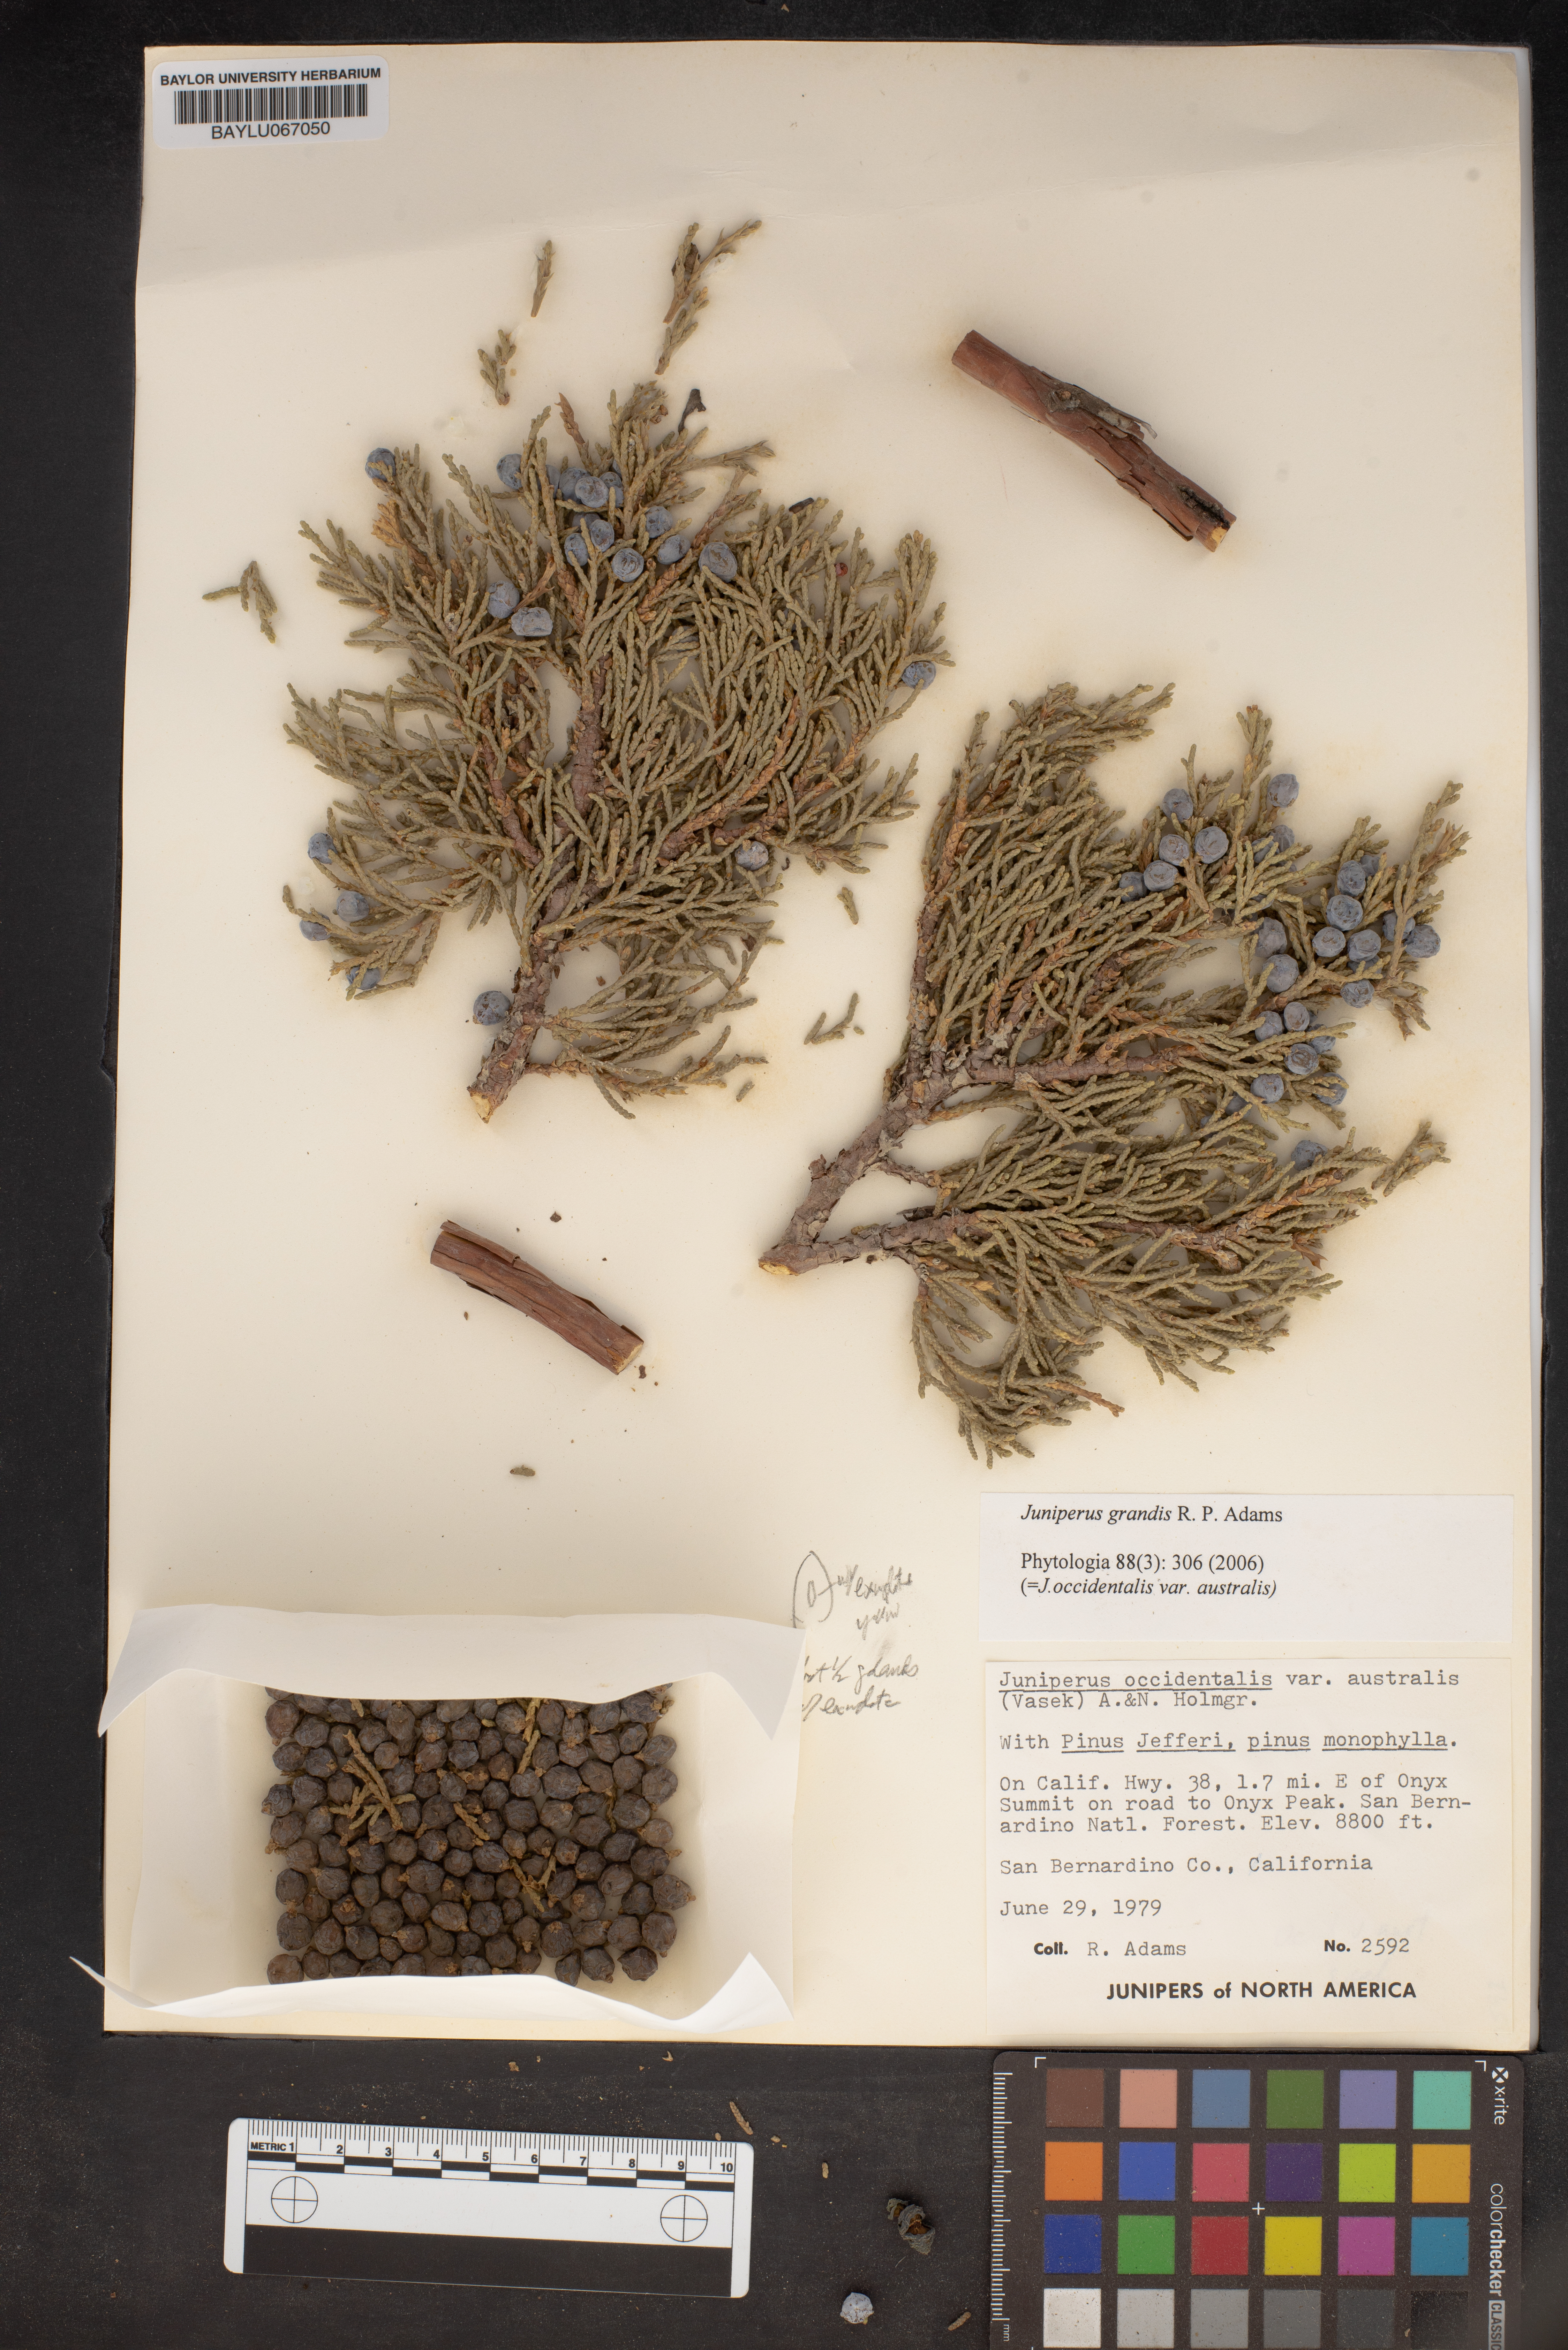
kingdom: Plantae
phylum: Tracheophyta
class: Pinopsida
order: Pinales
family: Cupressaceae
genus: Juniperus
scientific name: Juniperus occidentalis
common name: Western juniper
